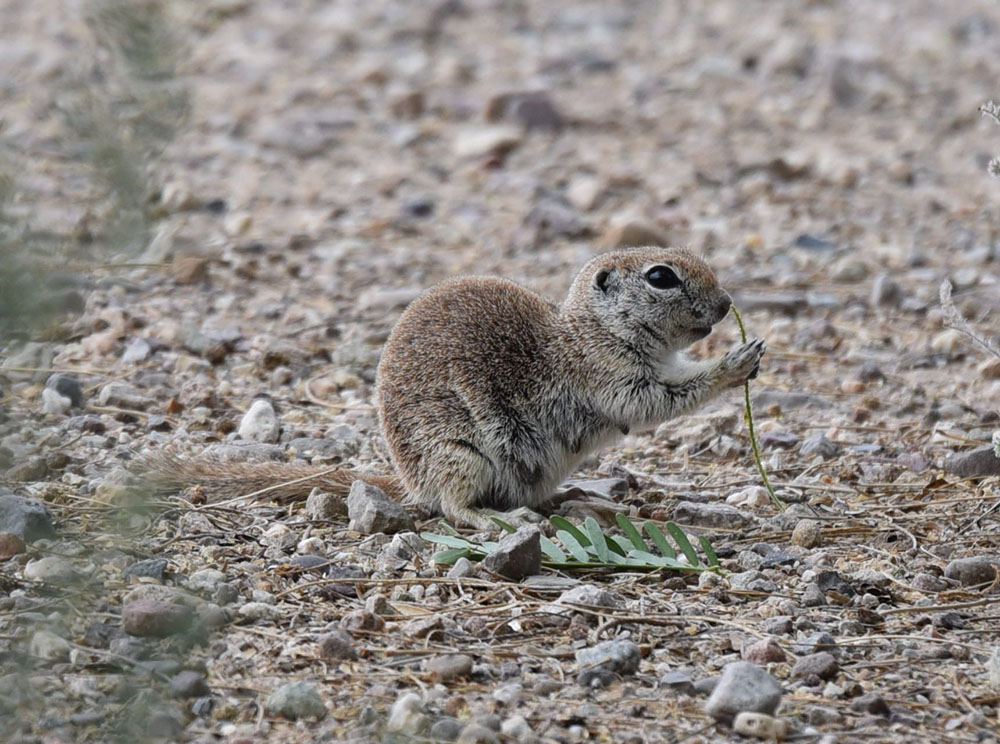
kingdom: Animalia
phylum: Chordata
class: Mammalia
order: Rodentia
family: Sciuridae
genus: Xerospermophilus
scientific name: Xerospermophilus tereticaudus
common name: Round-tailed ground squirrel
